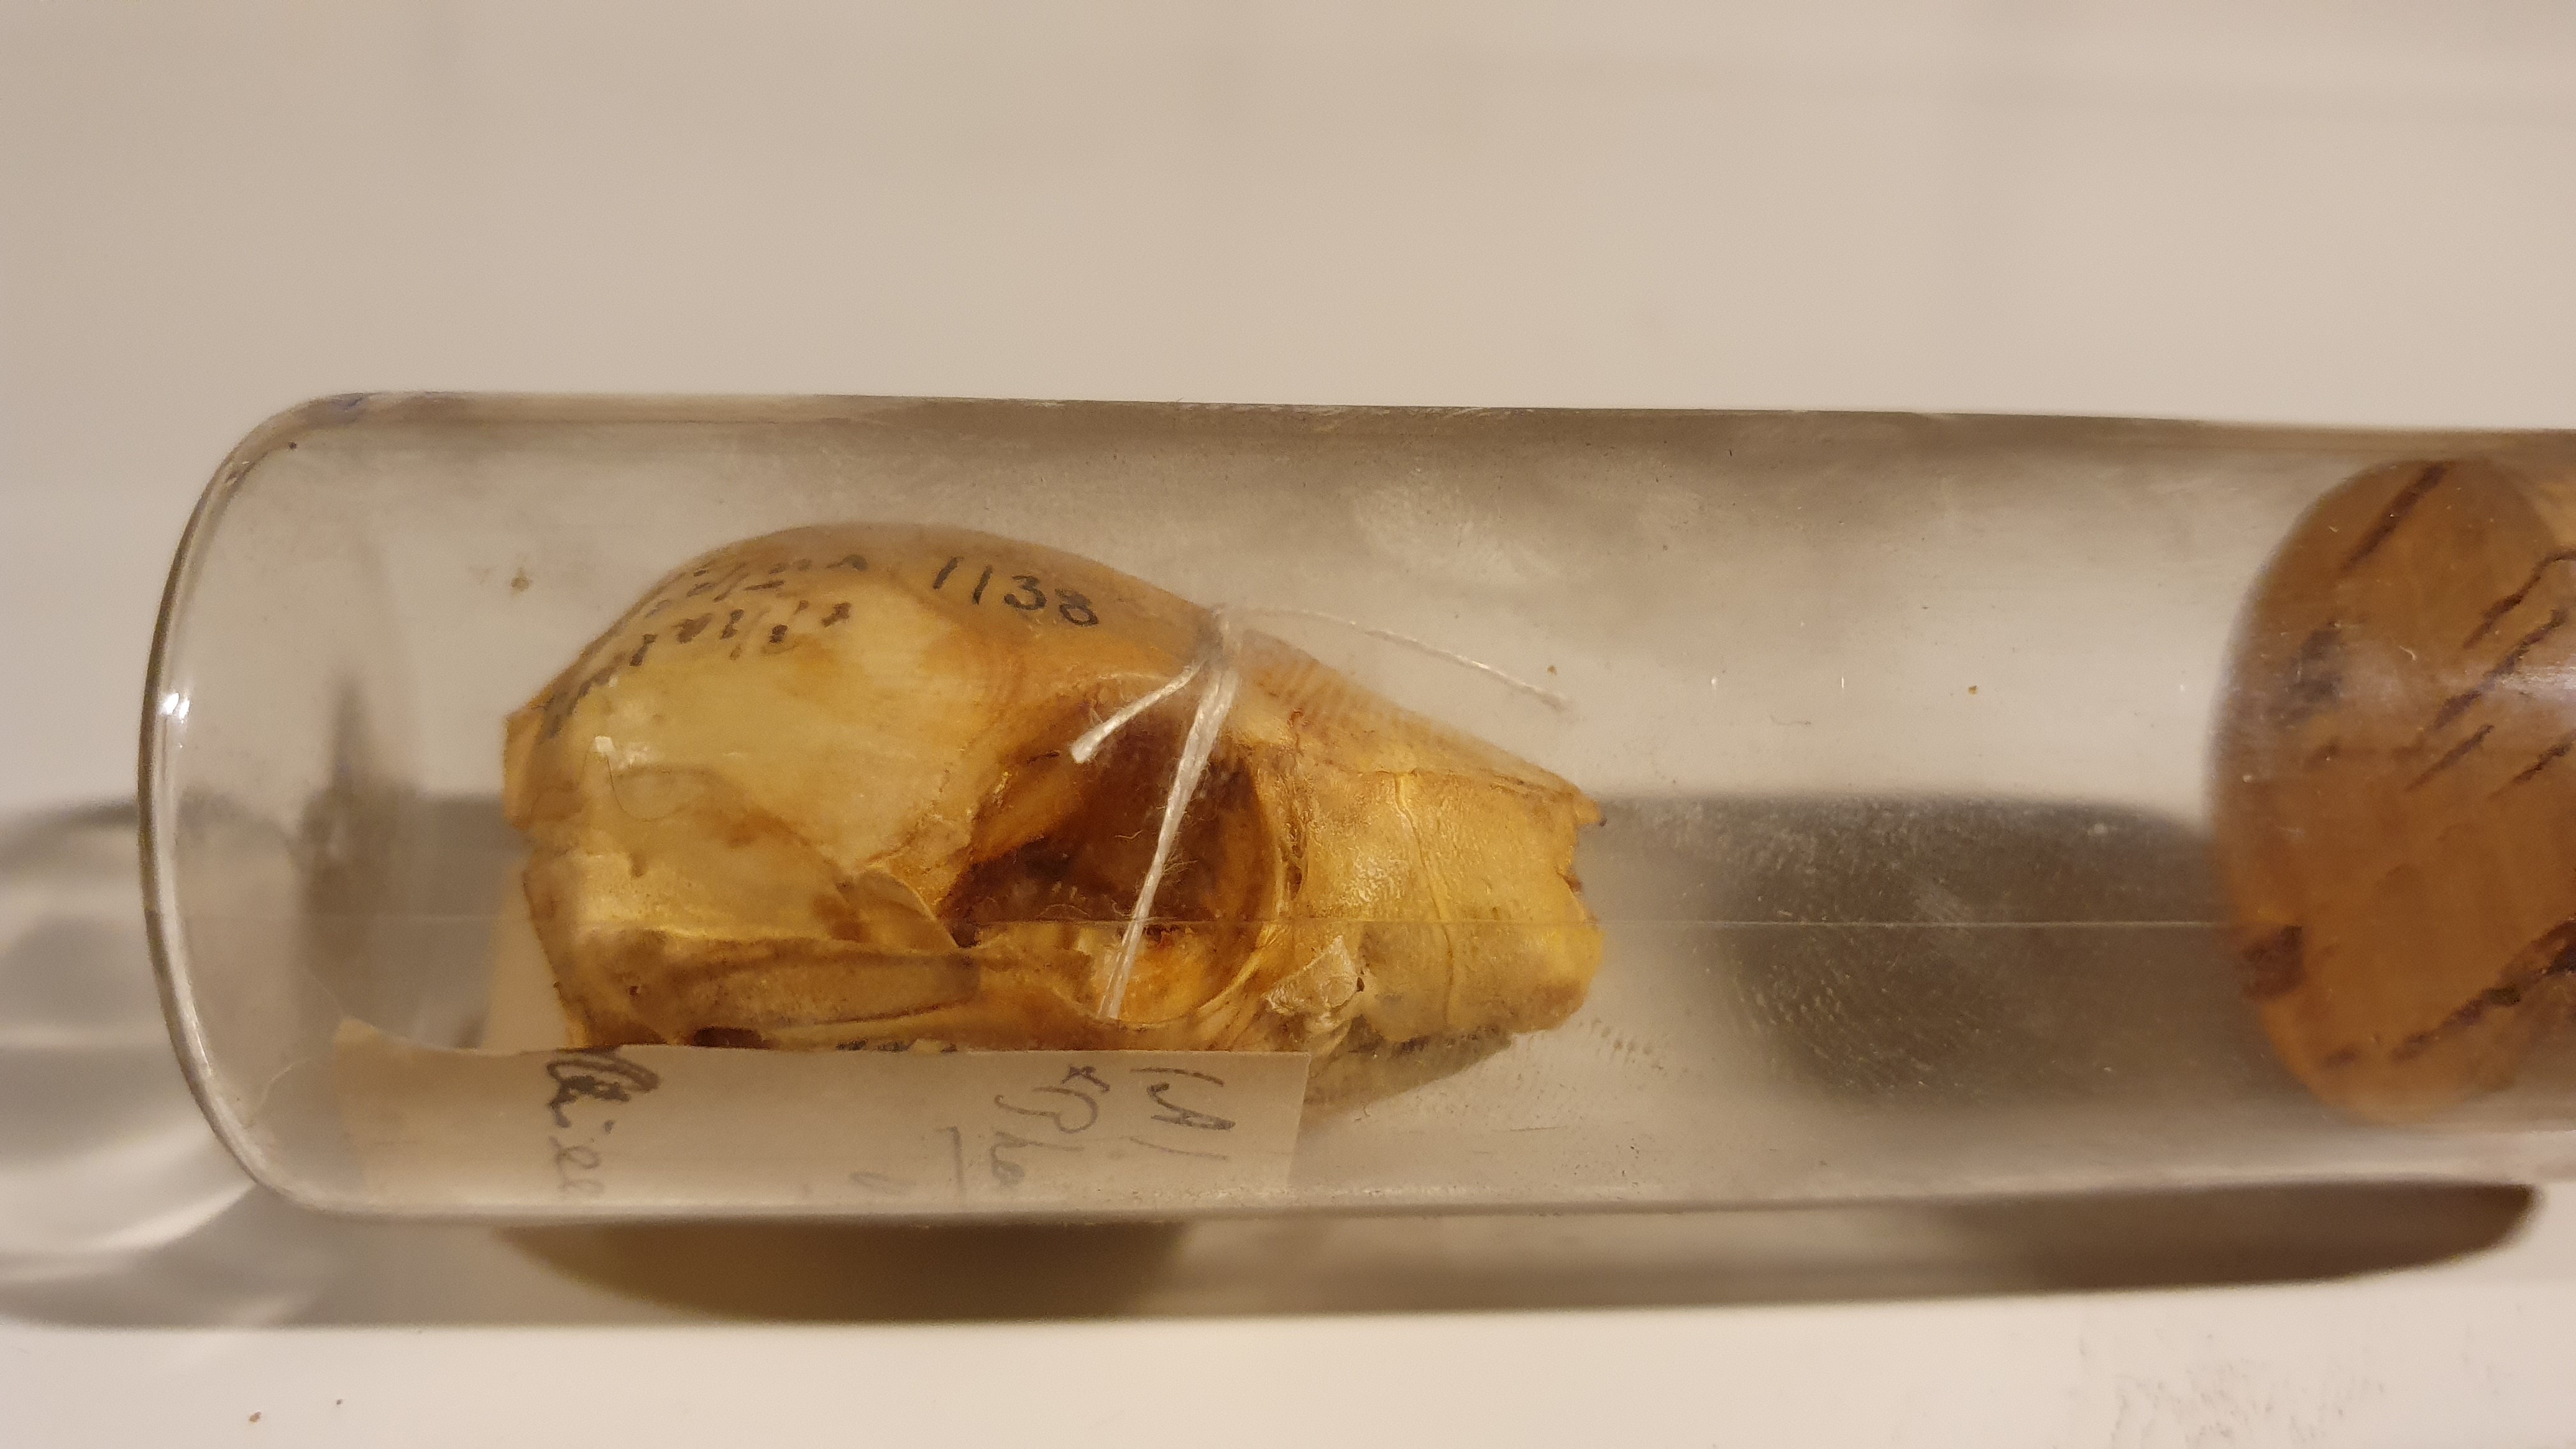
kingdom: Animalia
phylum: Chordata
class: Mammalia
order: Diprotodontia
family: Phalangeridae
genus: Trichosurus
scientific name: Trichosurus vulpecula
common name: Common brushtail
